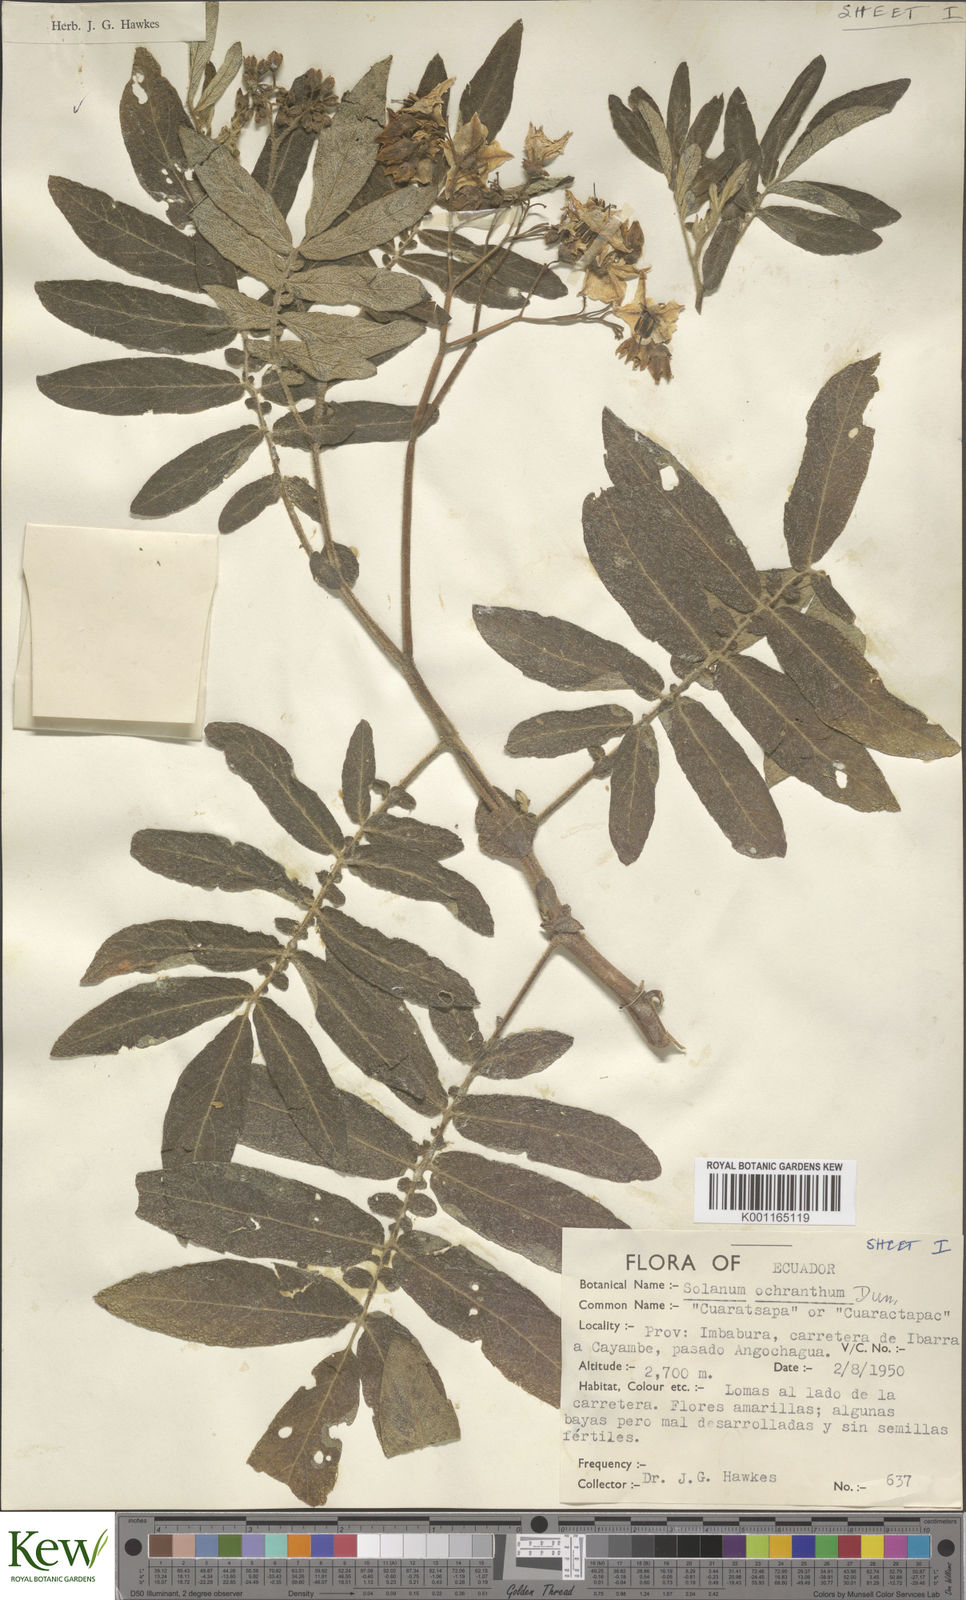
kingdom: Plantae
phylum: Tracheophyta
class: Magnoliopsida
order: Solanales
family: Solanaceae
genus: Solanum
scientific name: Solanum ochranthum
